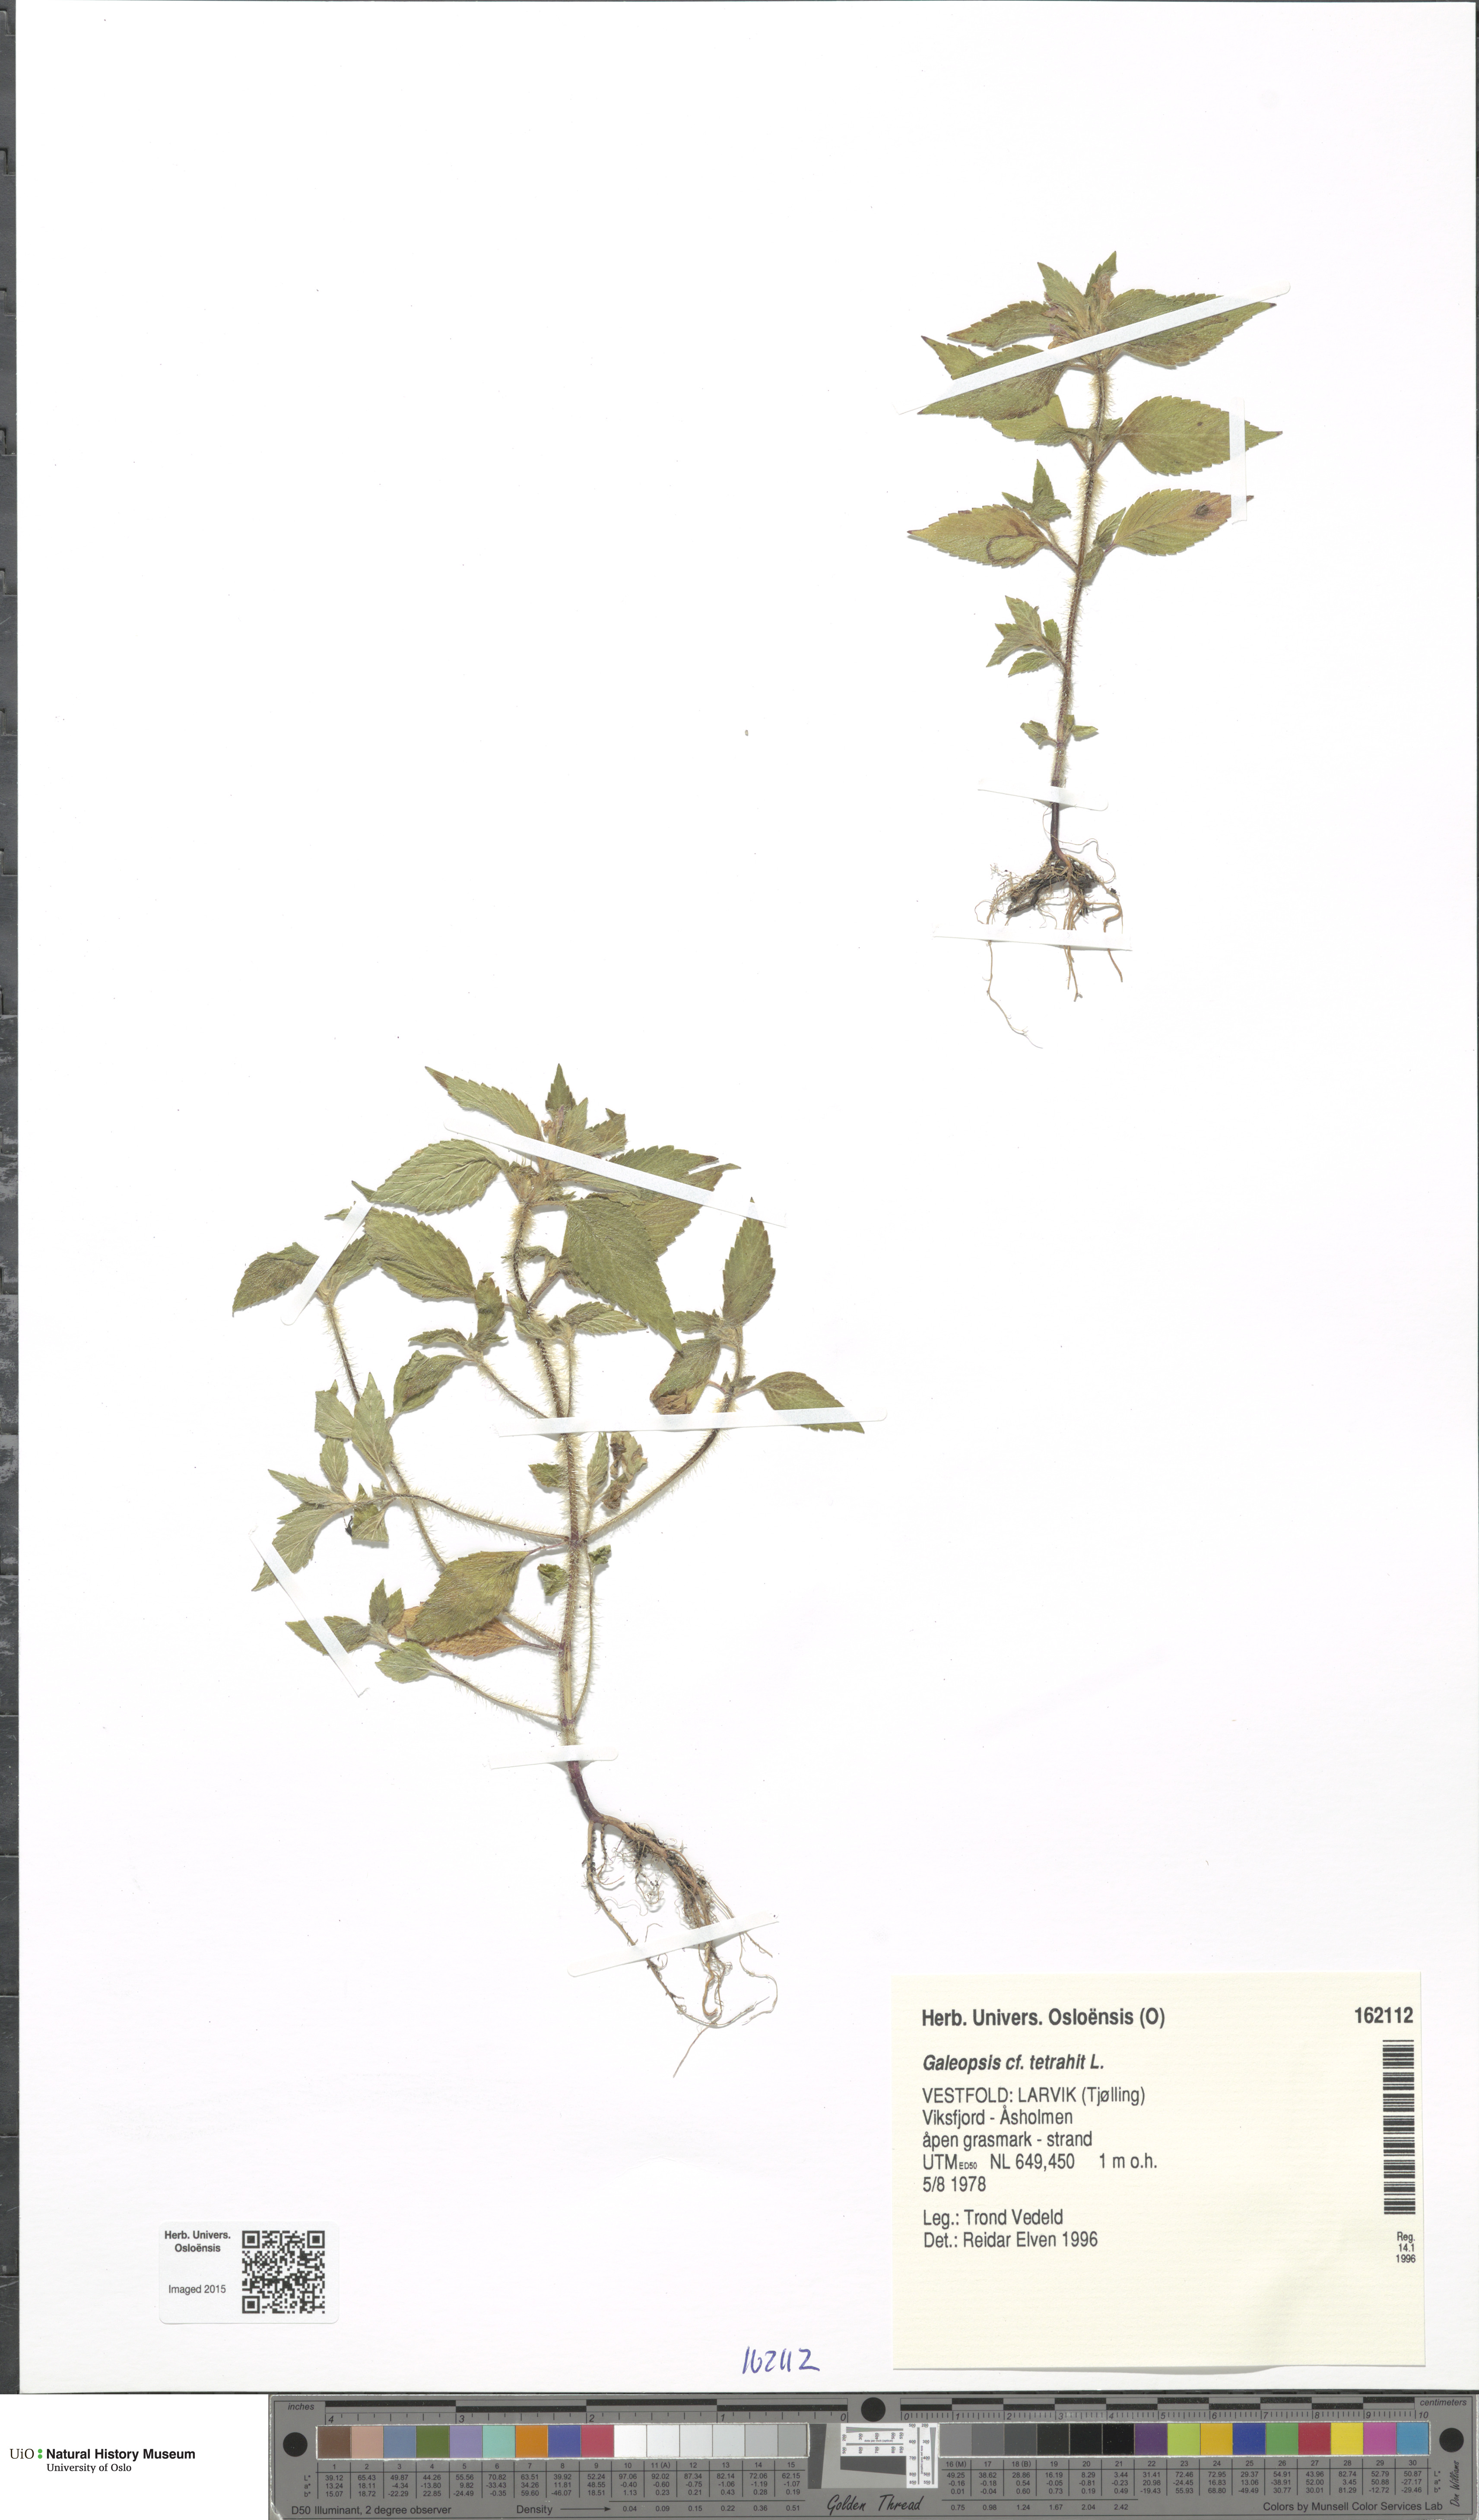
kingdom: Plantae
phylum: Tracheophyta
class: Magnoliopsida
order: Lamiales
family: Lamiaceae
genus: Galeopsis
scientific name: Galeopsis tetrahit
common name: Common hemp-nettle
